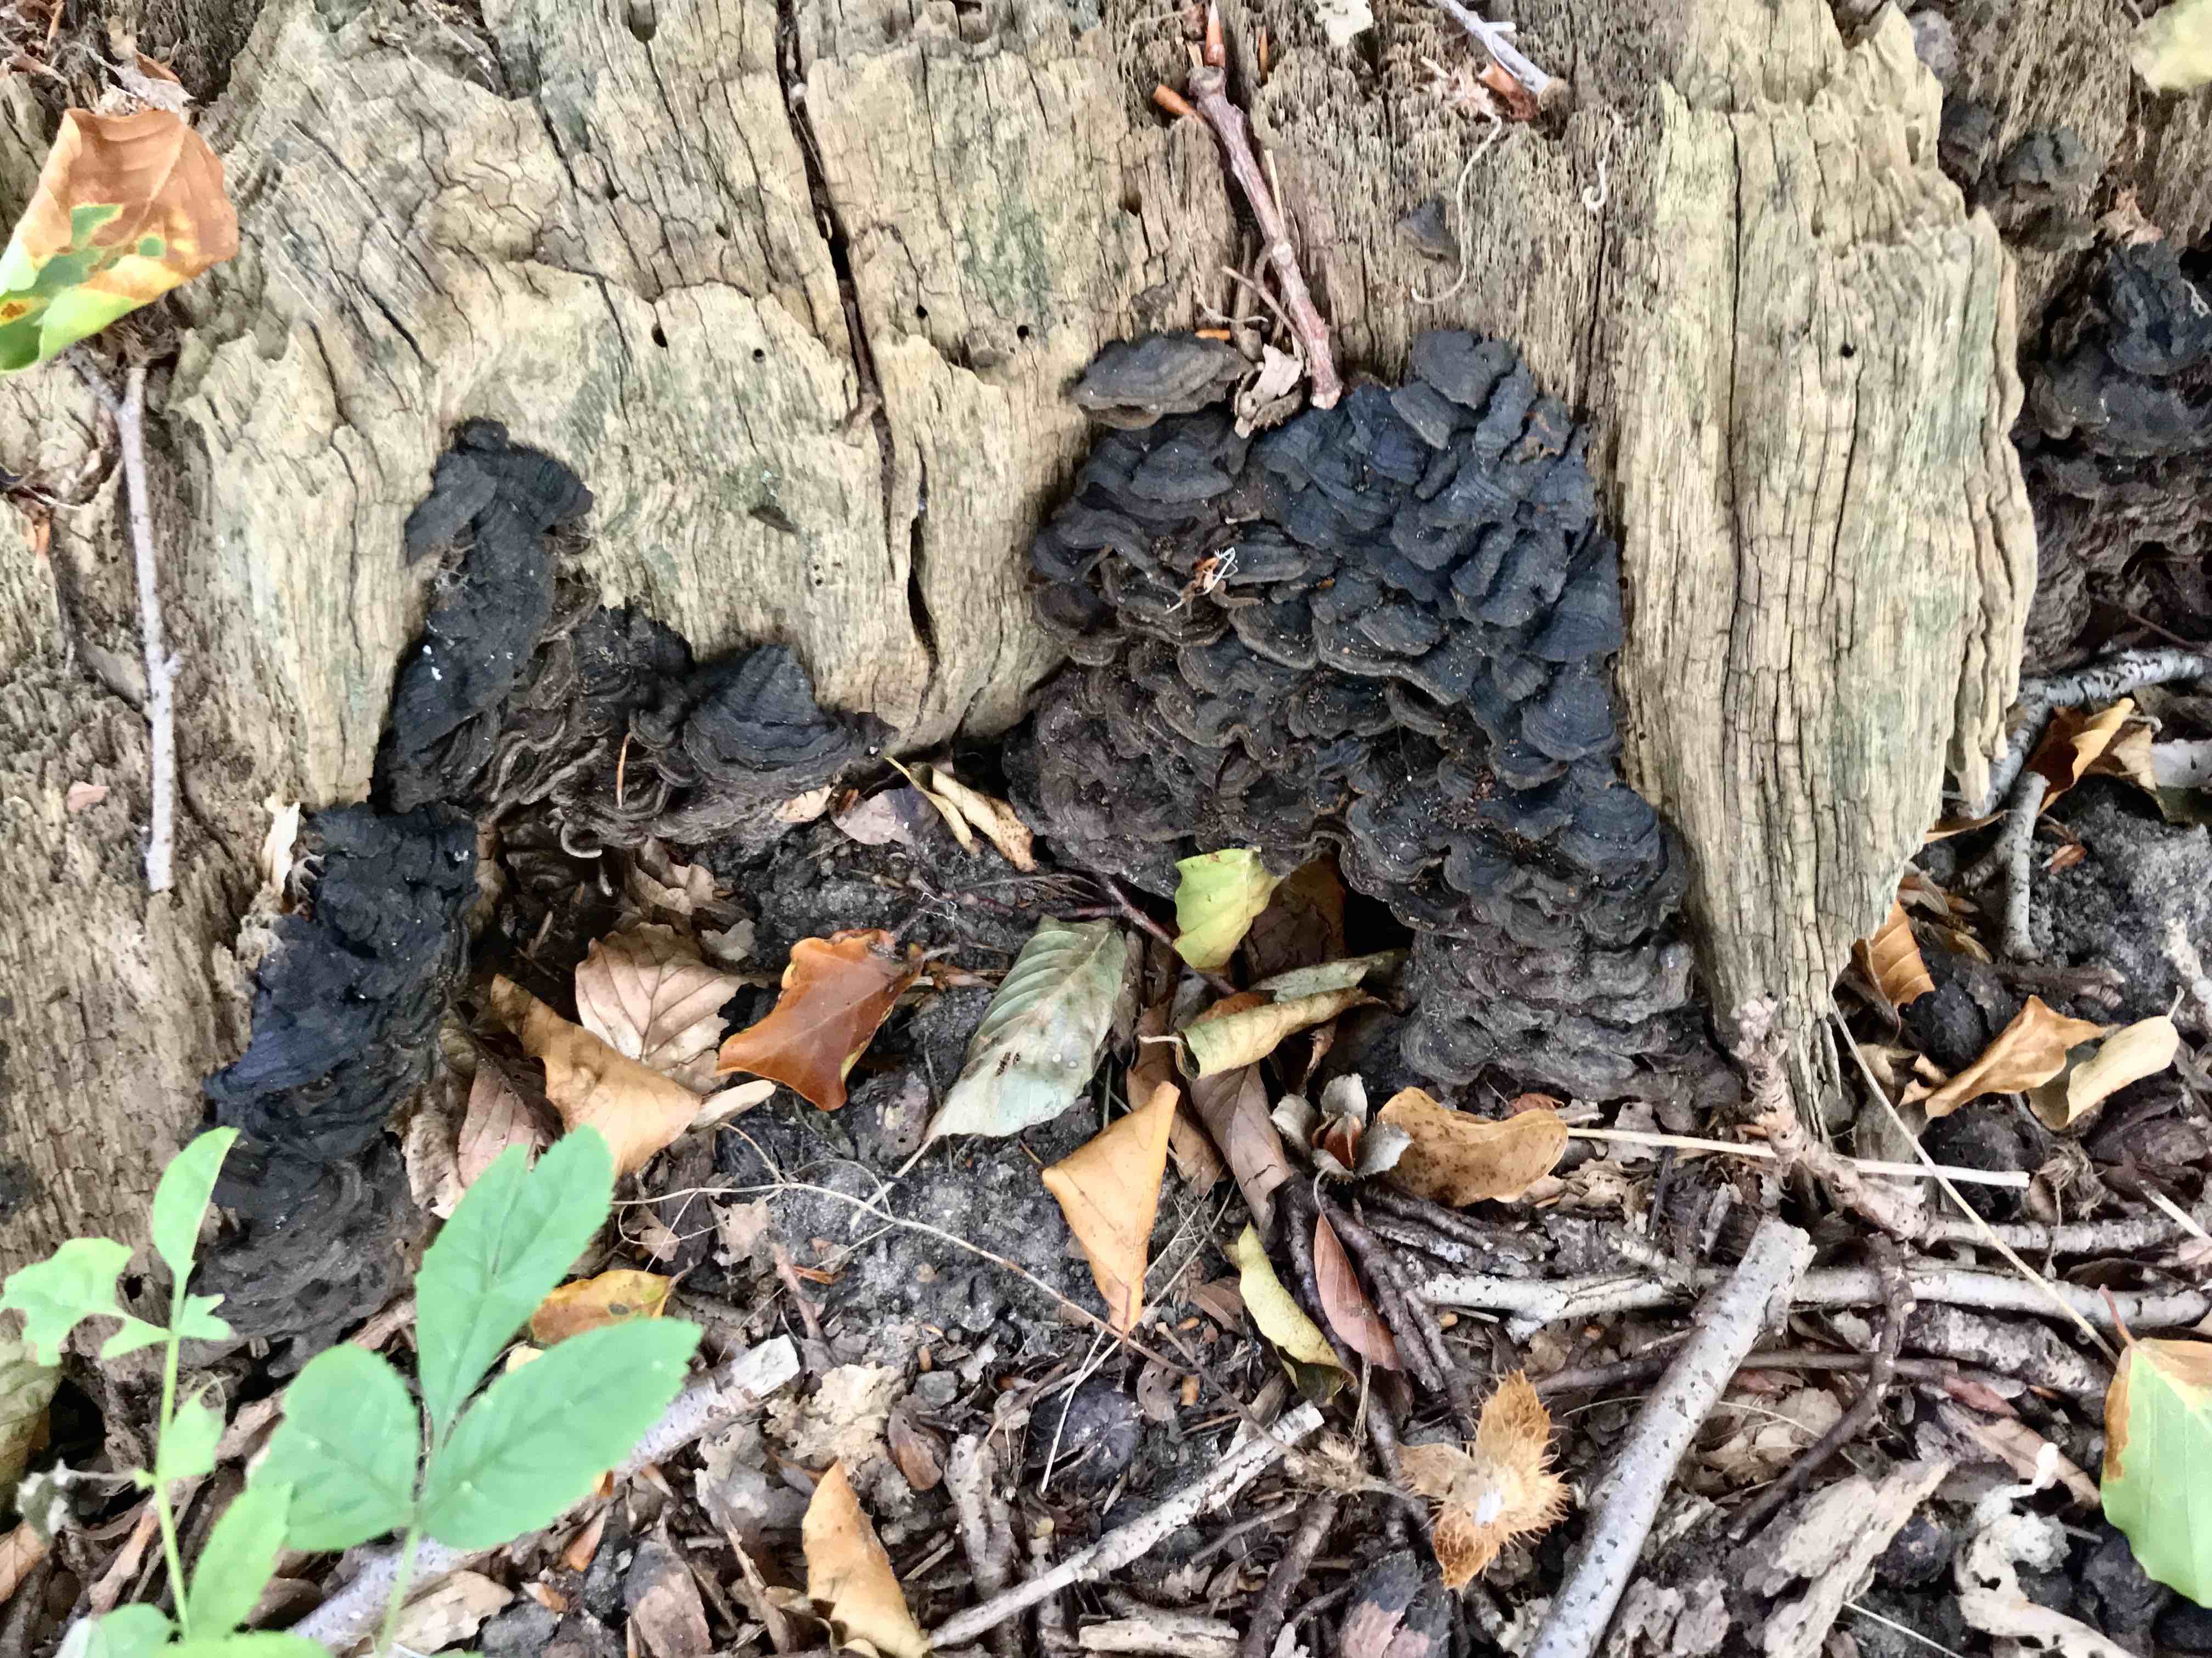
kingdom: Fungi
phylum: Basidiomycota
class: Agaricomycetes
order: Hymenochaetales
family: Hymenochaetaceae
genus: Hymenochaete
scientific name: Hymenochaete rubiginosa
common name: stiv ruslædersvamp
